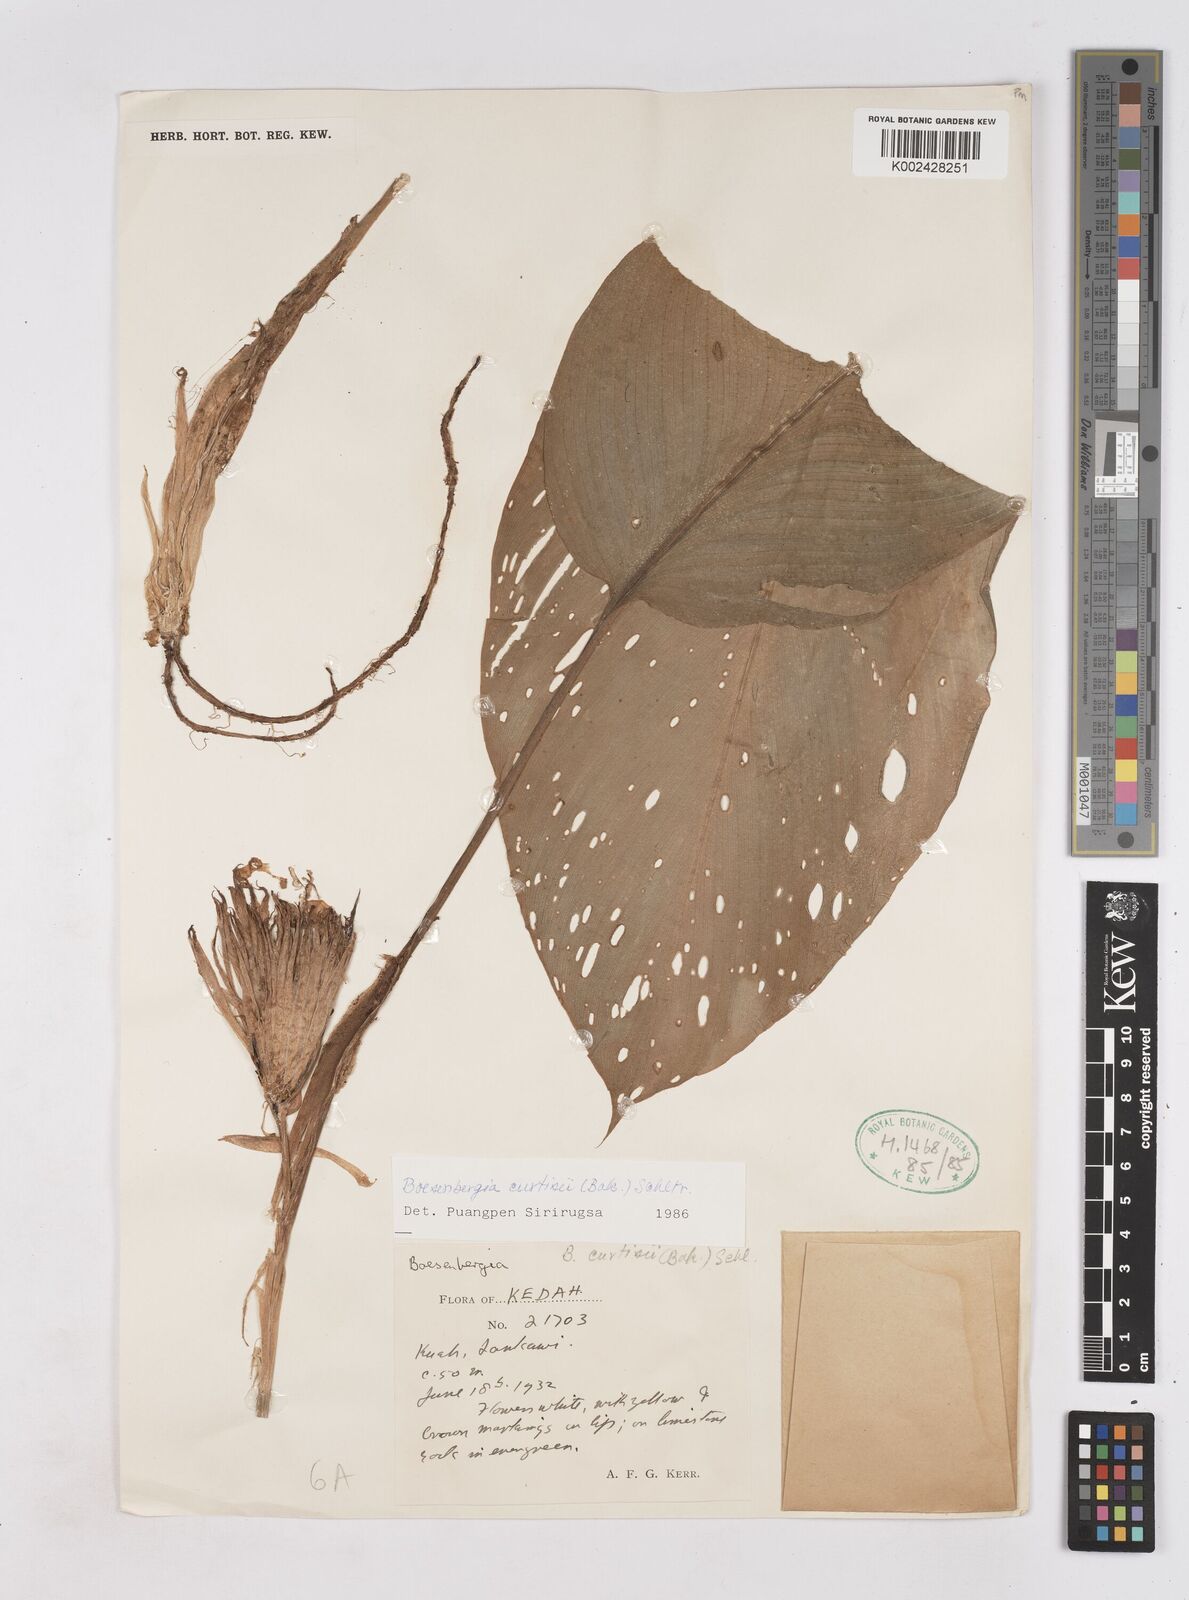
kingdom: Plantae
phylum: Tracheophyta
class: Liliopsida
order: Zingiberales
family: Zingiberaceae
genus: Boesenbergia
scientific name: Boesenbergia curtisii
